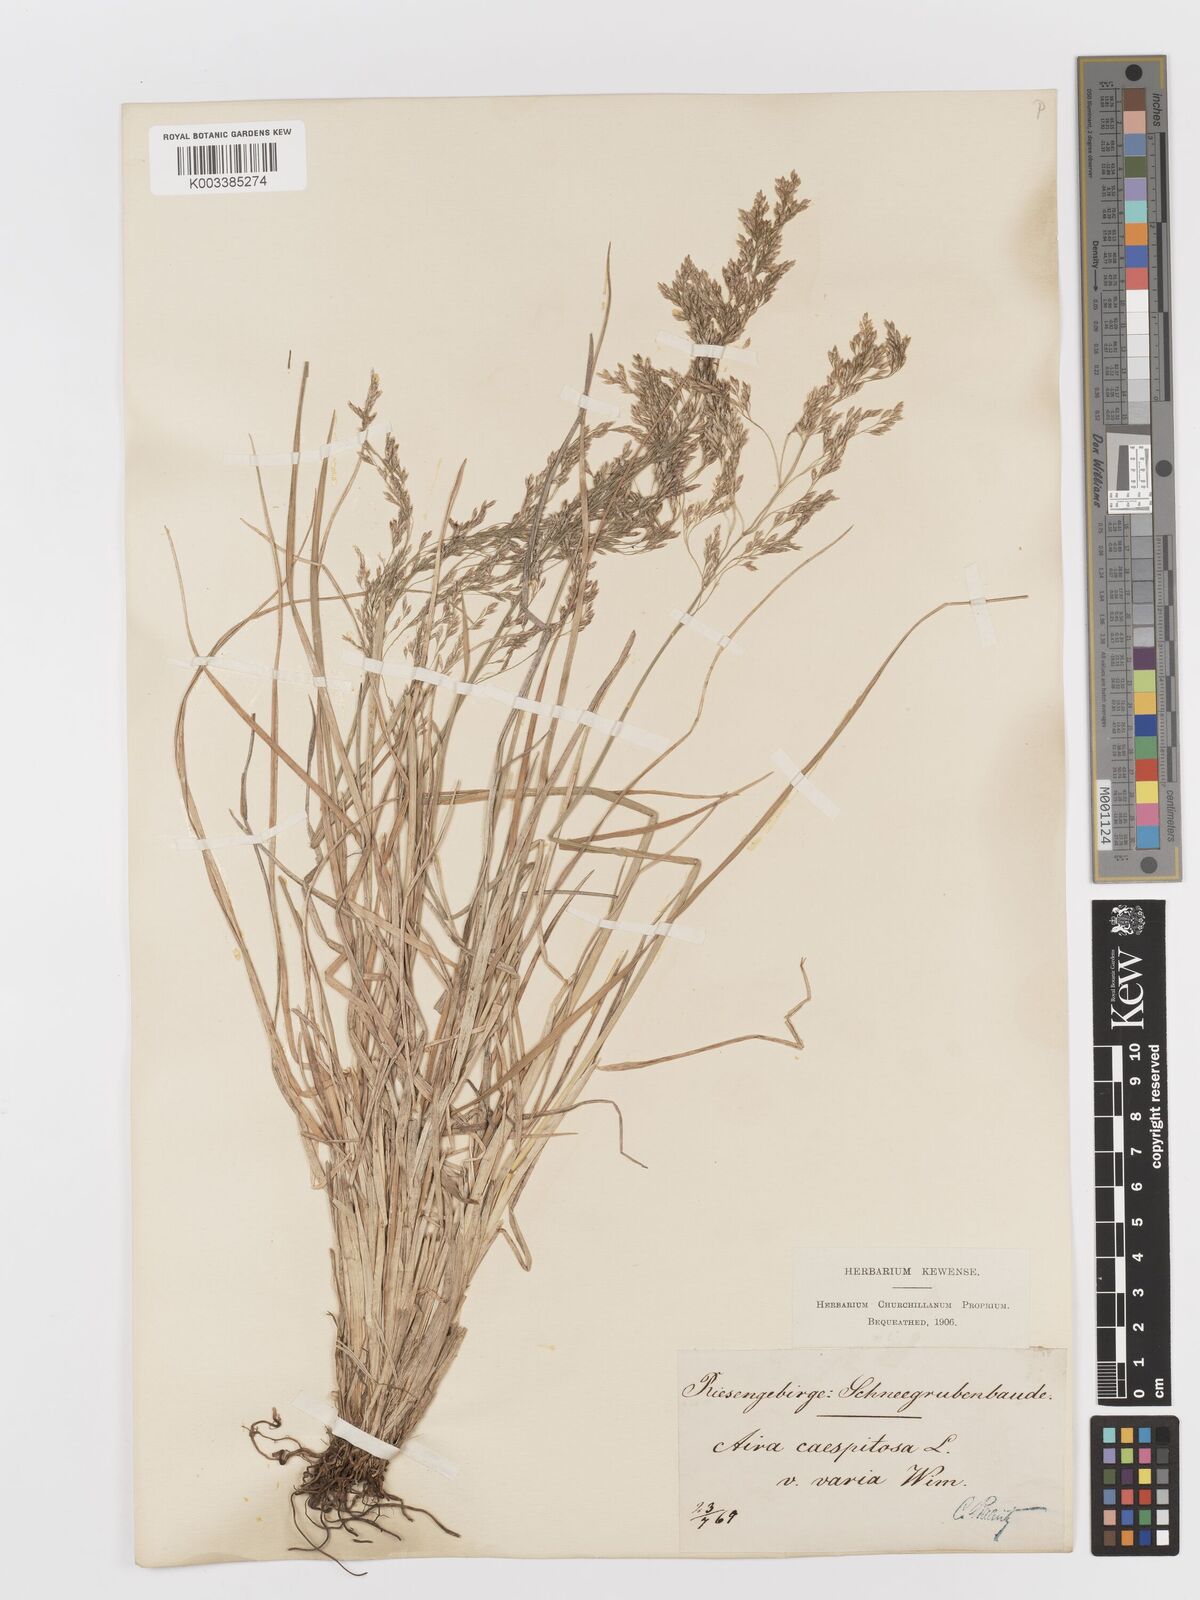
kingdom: Plantae
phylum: Tracheophyta
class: Liliopsida
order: Poales
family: Poaceae
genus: Deschampsia
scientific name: Deschampsia cespitosa
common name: Tufted hair-grass
